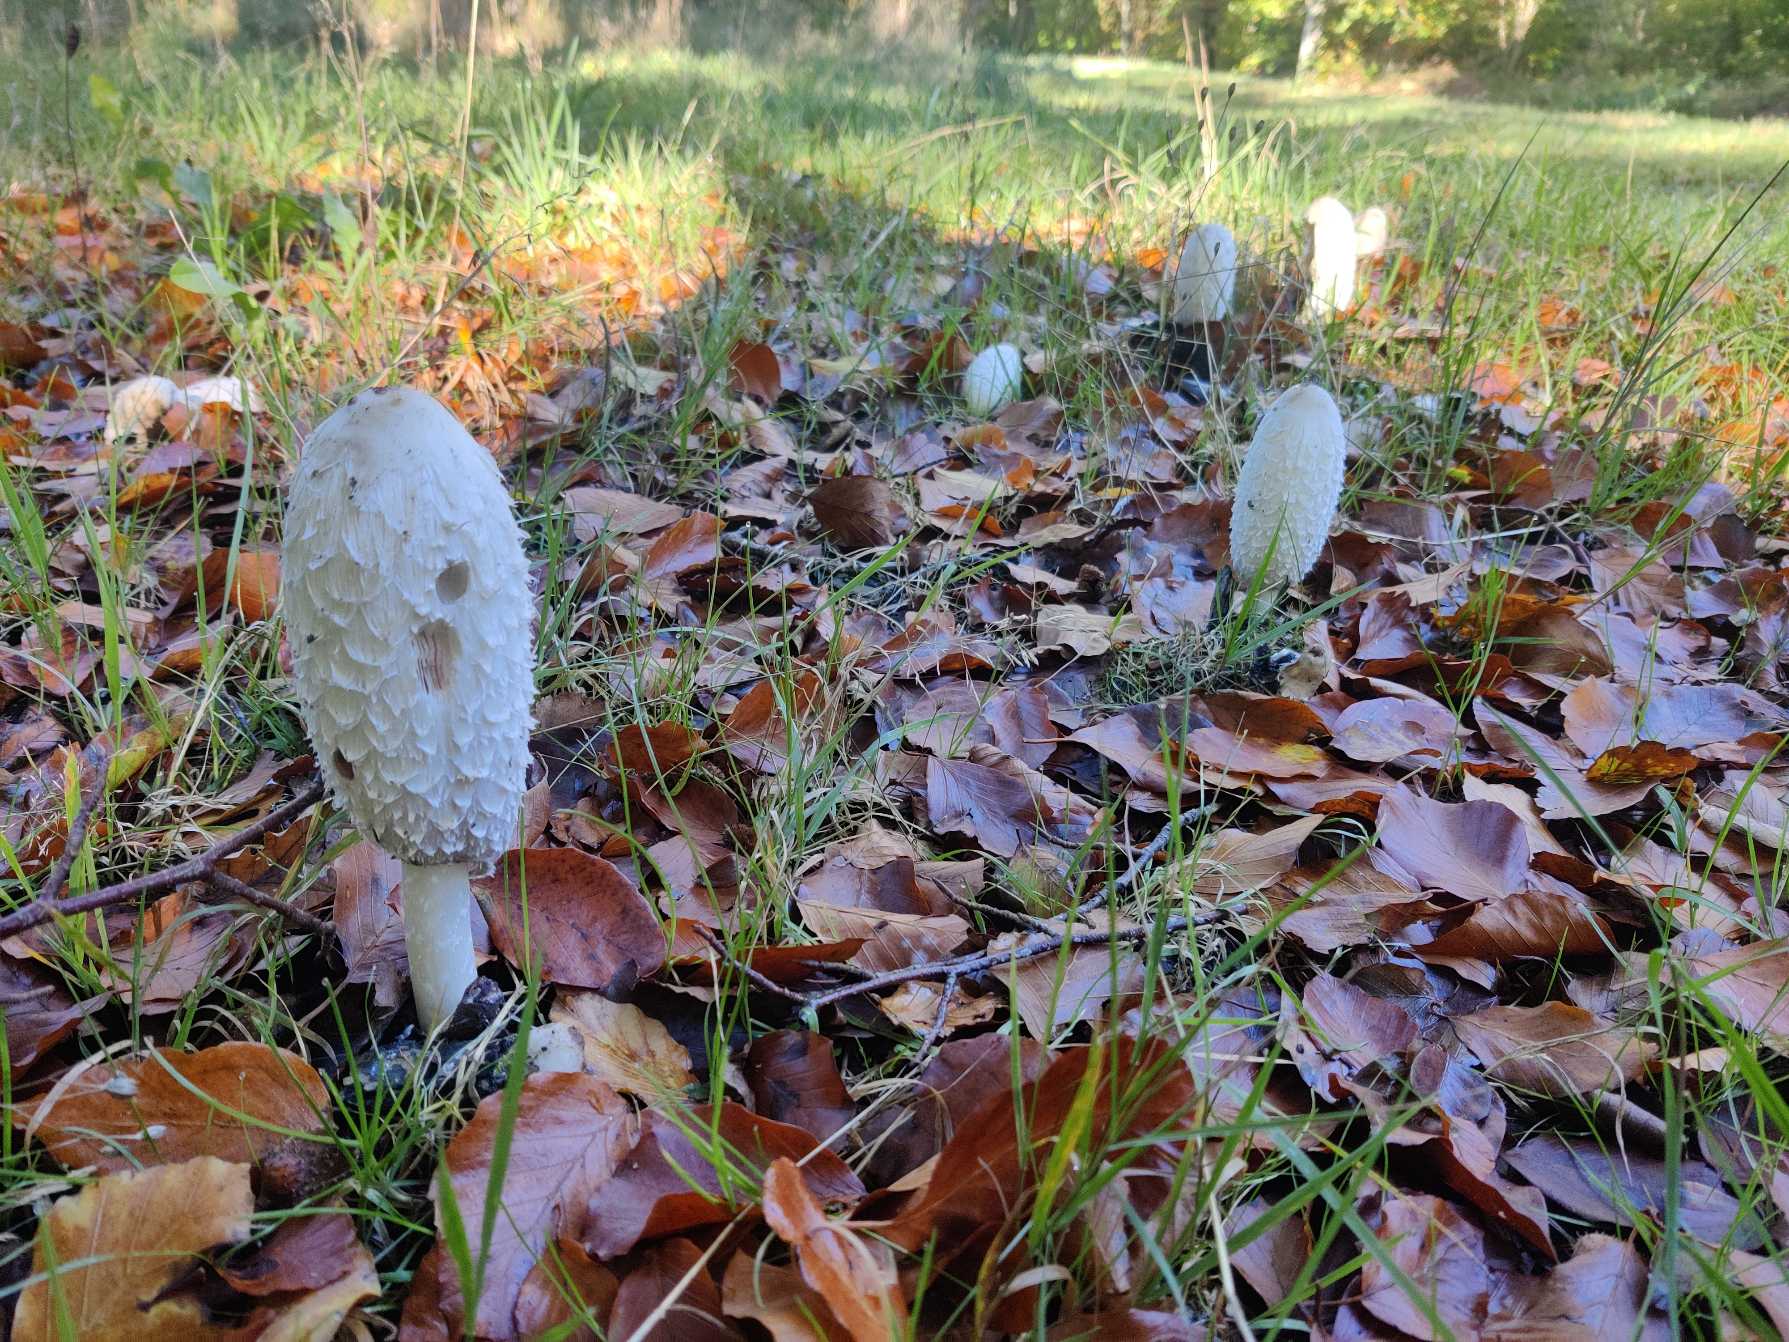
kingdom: Fungi
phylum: Basidiomycota
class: Agaricomycetes
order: Agaricales
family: Agaricaceae
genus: Coprinus
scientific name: Coprinus comatus
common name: Stor parykhat
